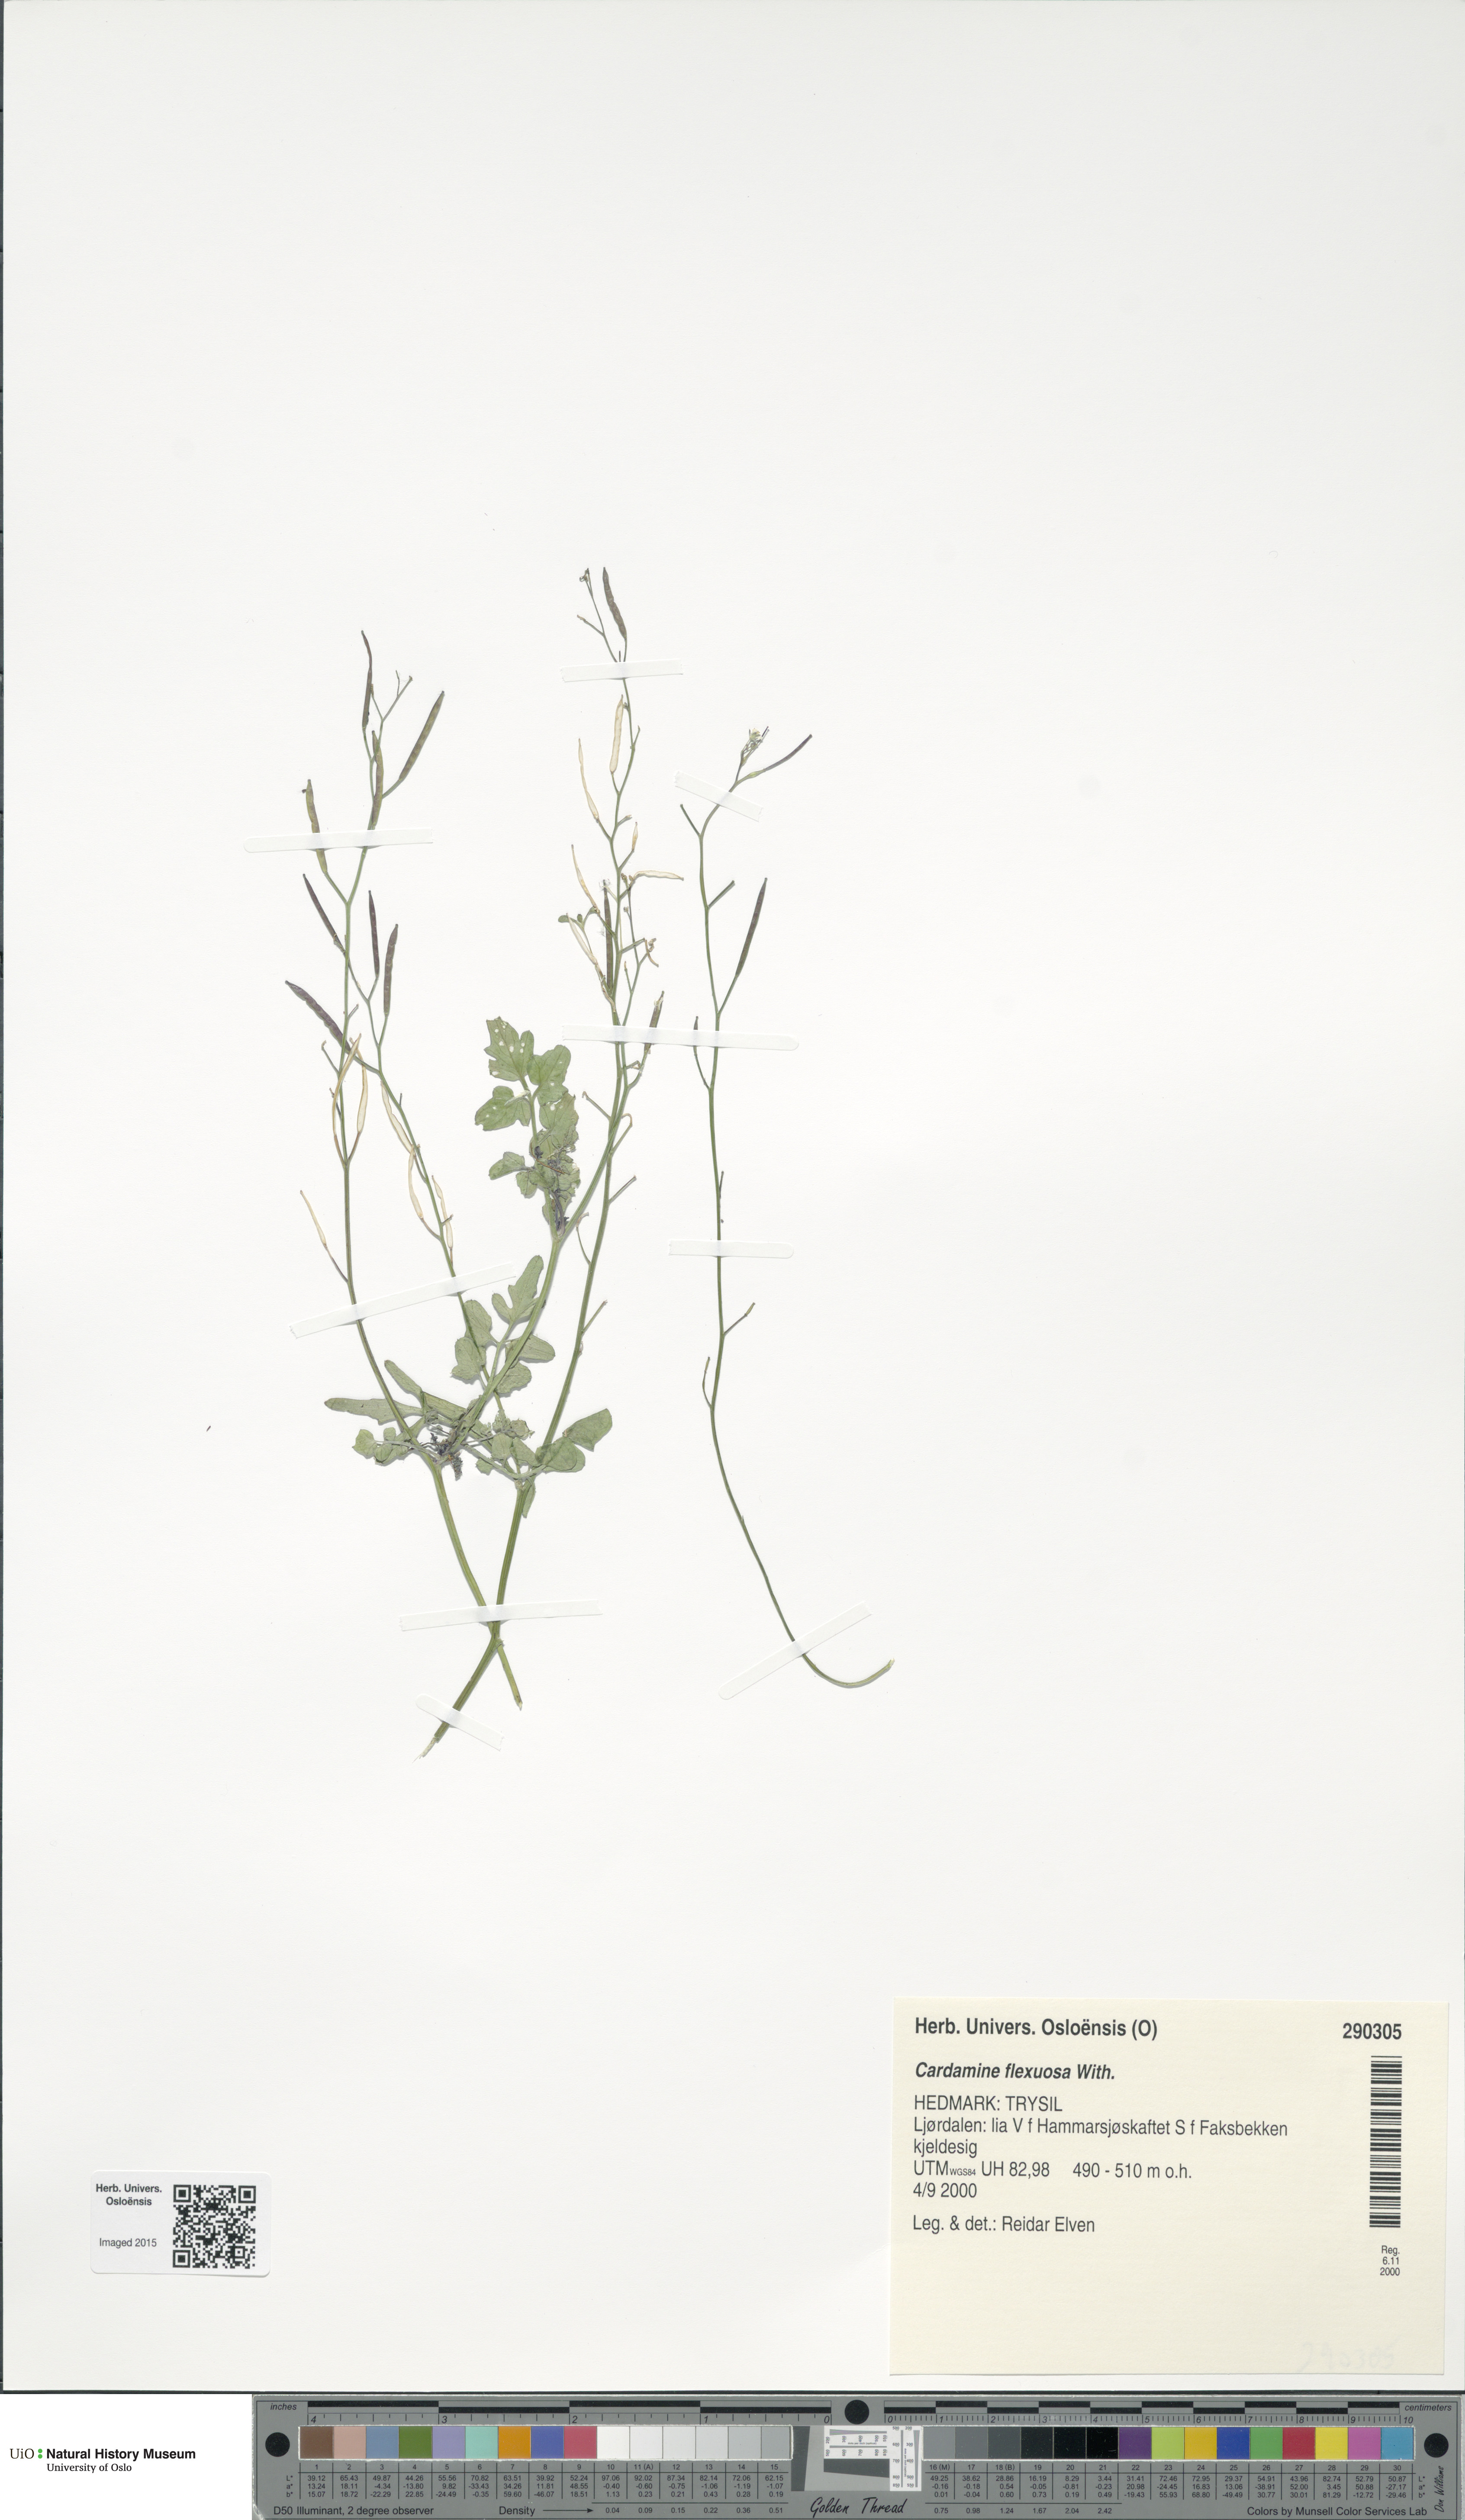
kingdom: Plantae
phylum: Tracheophyta
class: Magnoliopsida
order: Brassicales
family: Brassicaceae
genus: Cardamine
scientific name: Cardamine flexuosa
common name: Woodland bittercress
